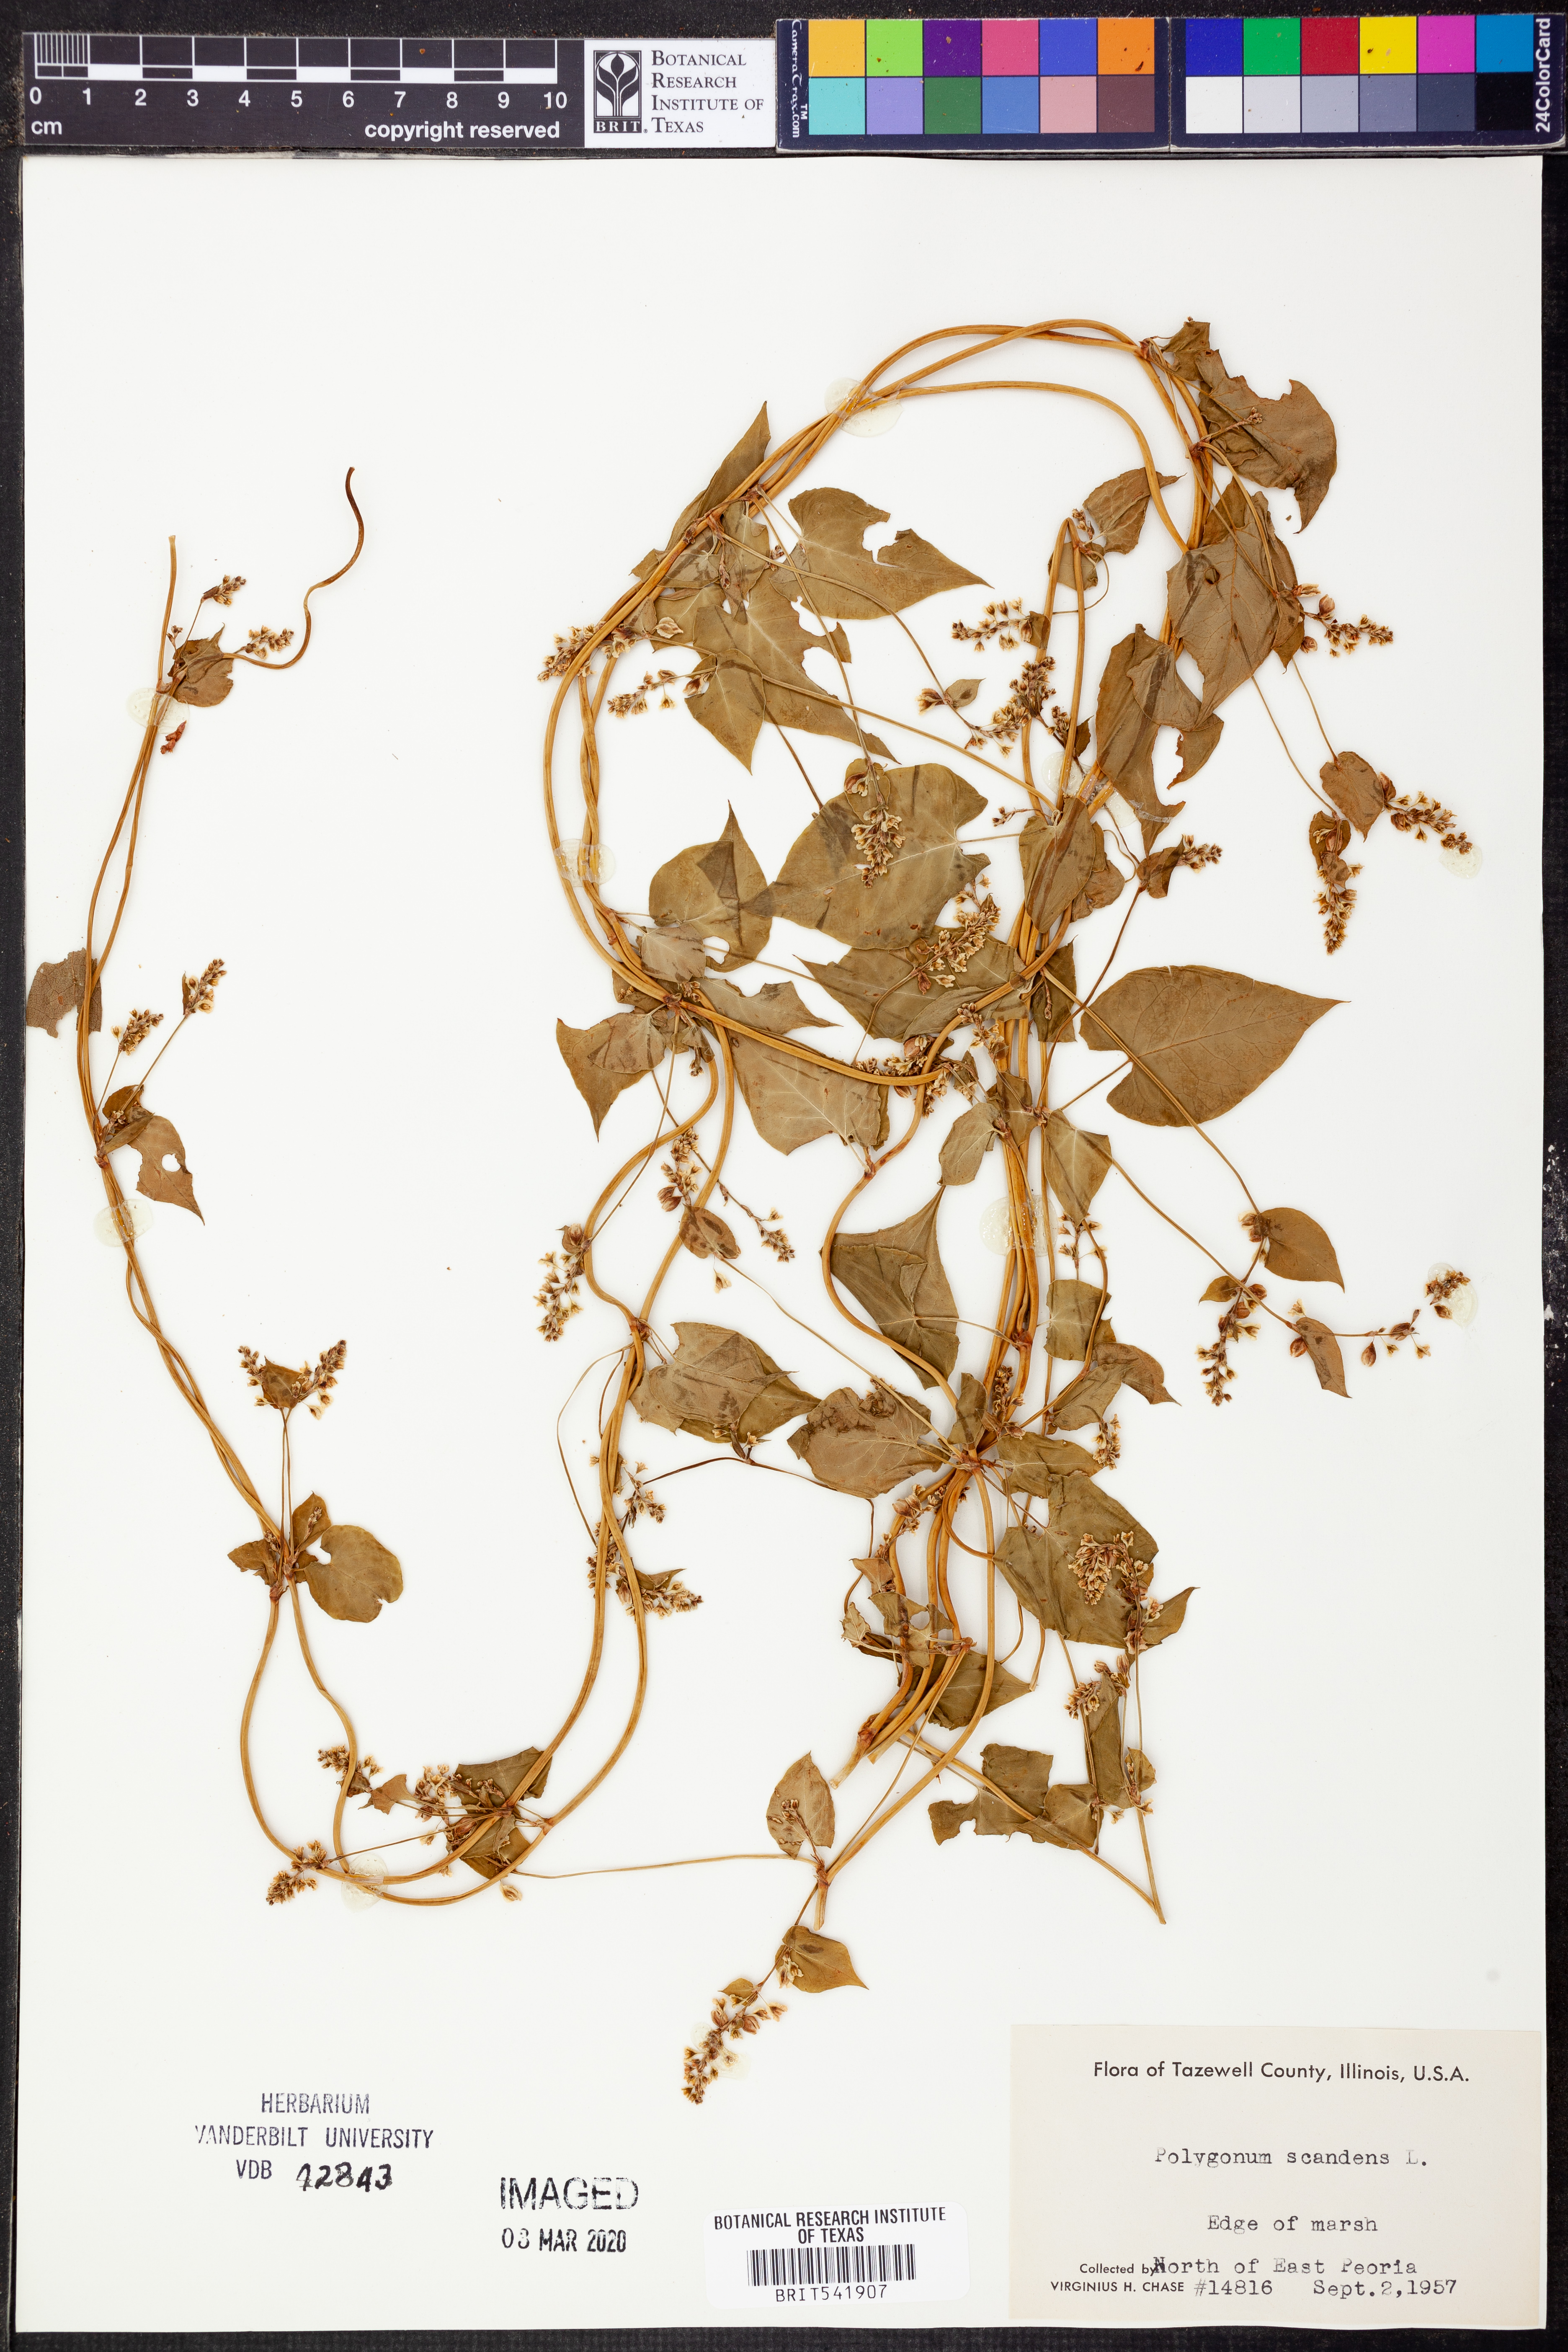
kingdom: Plantae
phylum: Tracheophyta
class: Magnoliopsida
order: Caryophyllales
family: Polygonaceae
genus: Fallopia
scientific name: Fallopia scandens
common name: Climbing false buckwheat
